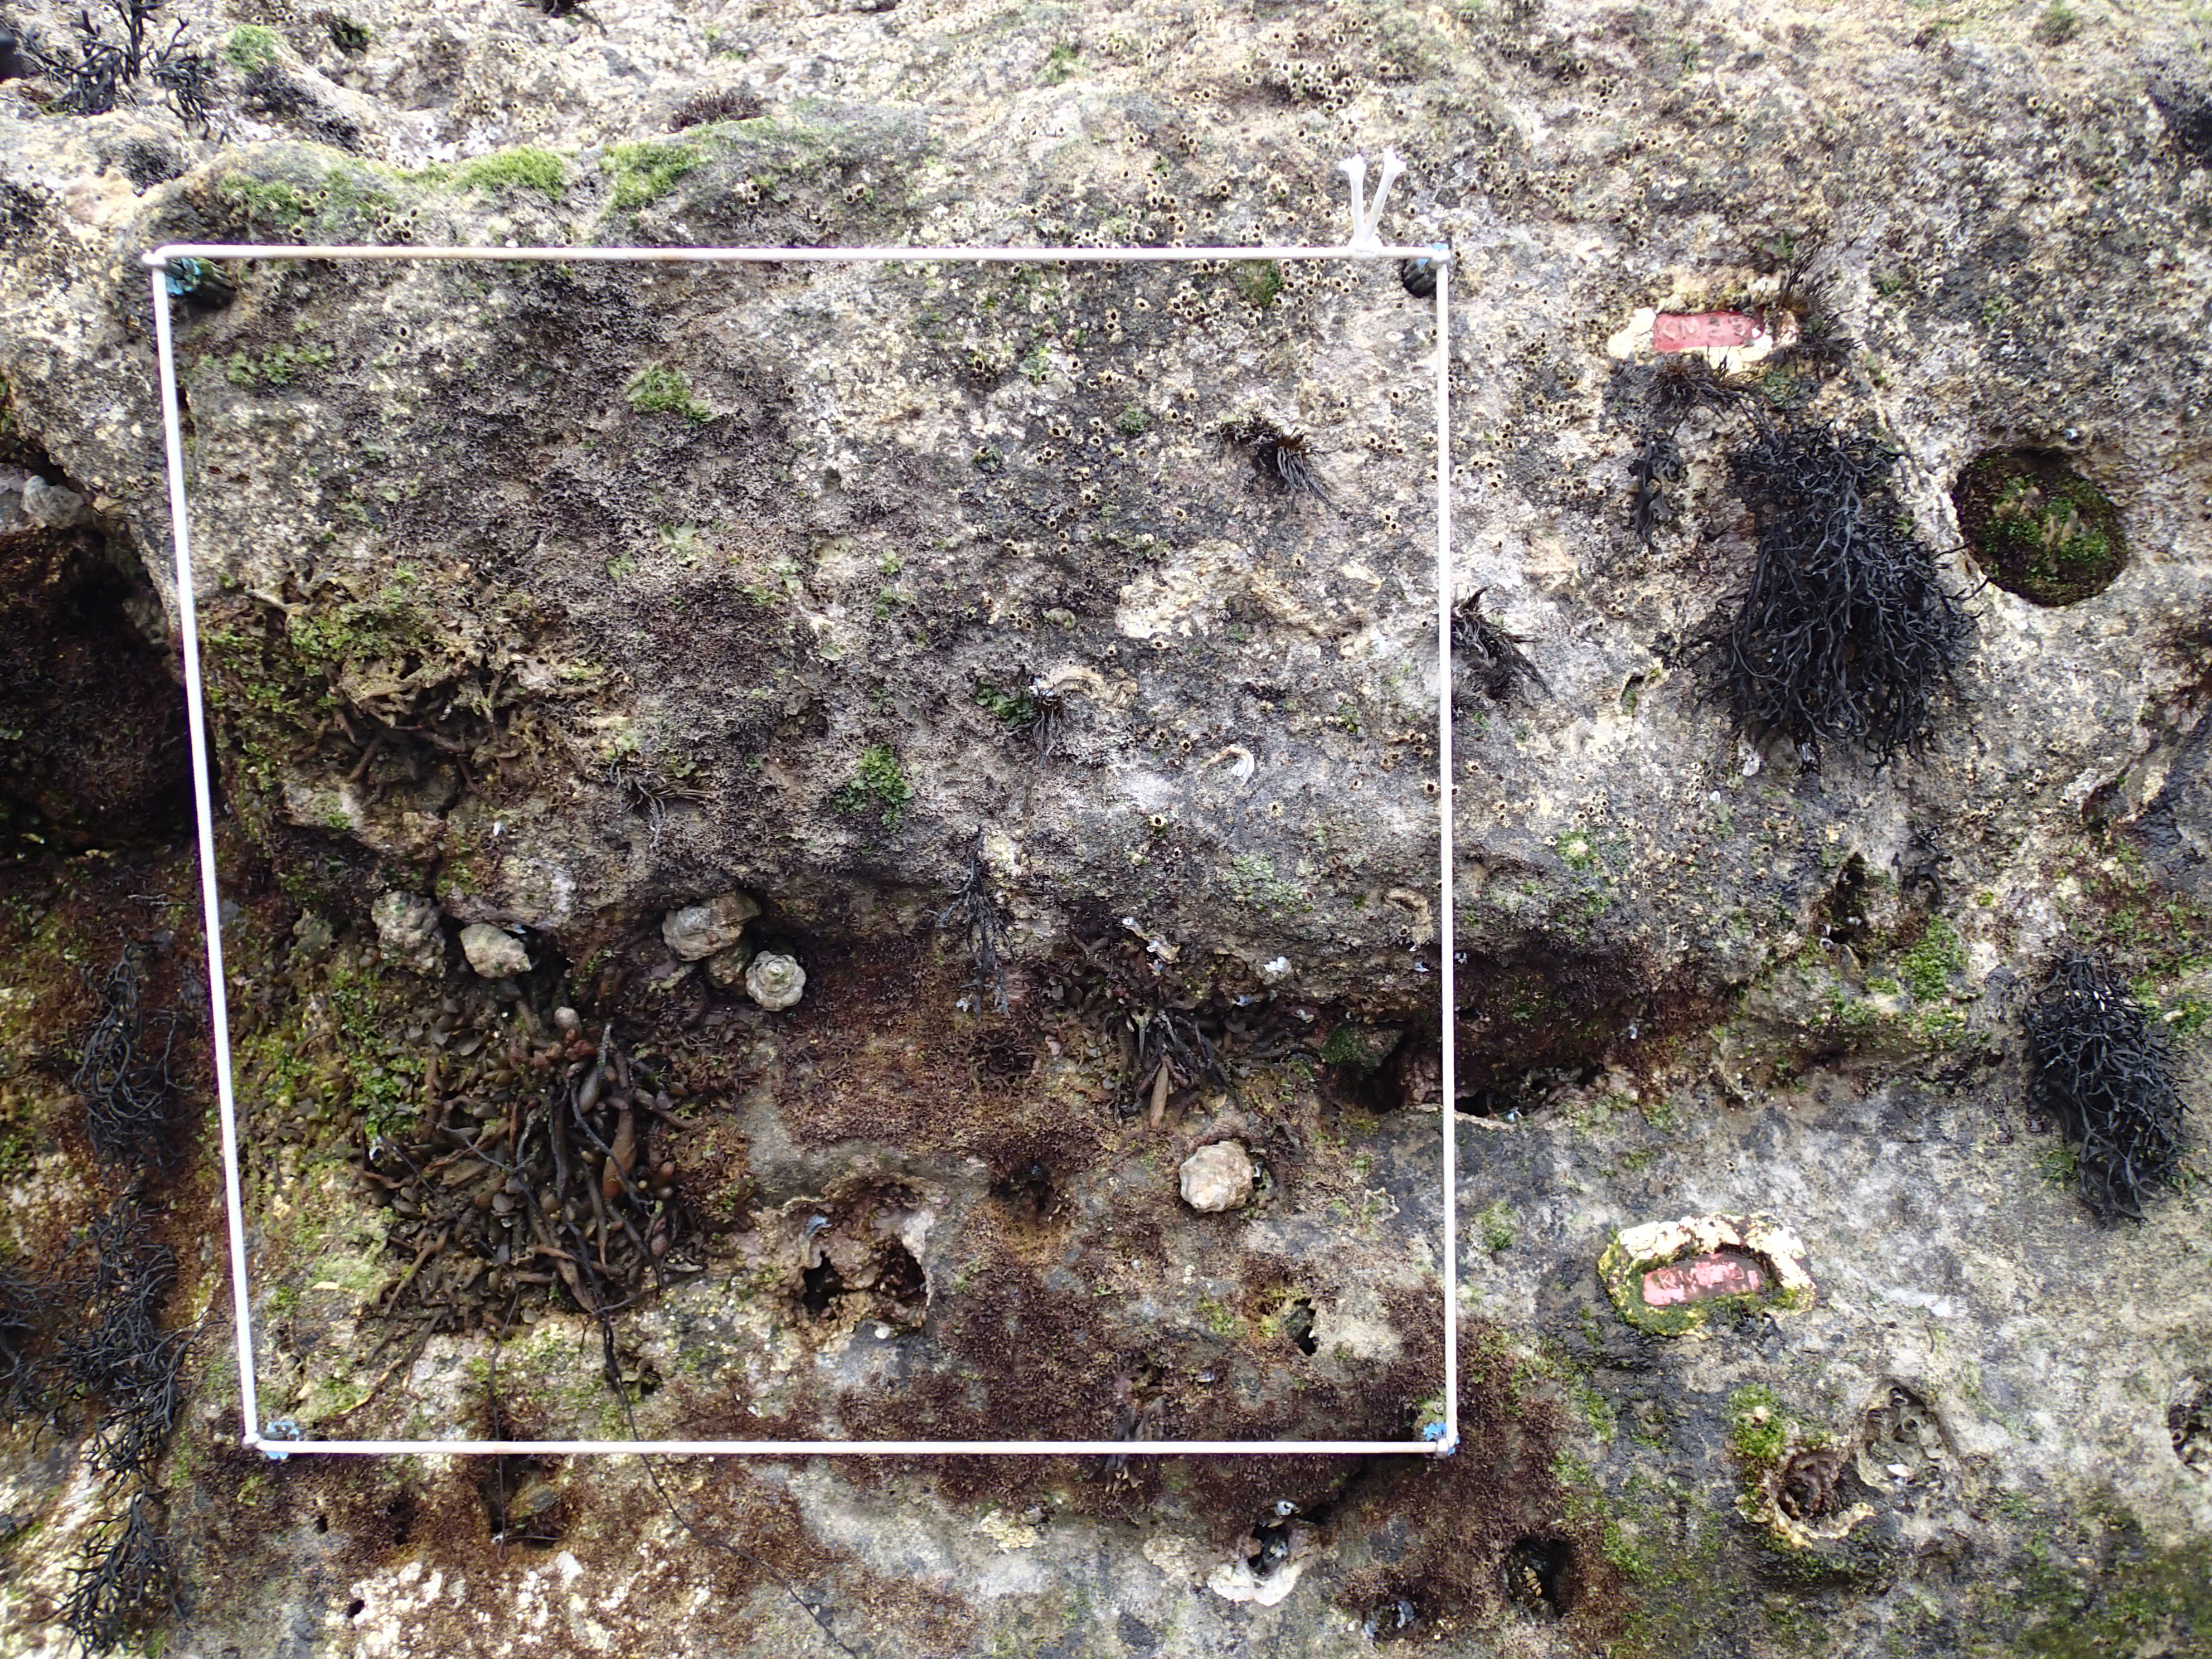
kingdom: Animalia
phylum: Arthropoda
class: Maxillopoda
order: Sessilia
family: Chthamalidae
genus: Chthamalus
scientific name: Chthamalus challengeri
